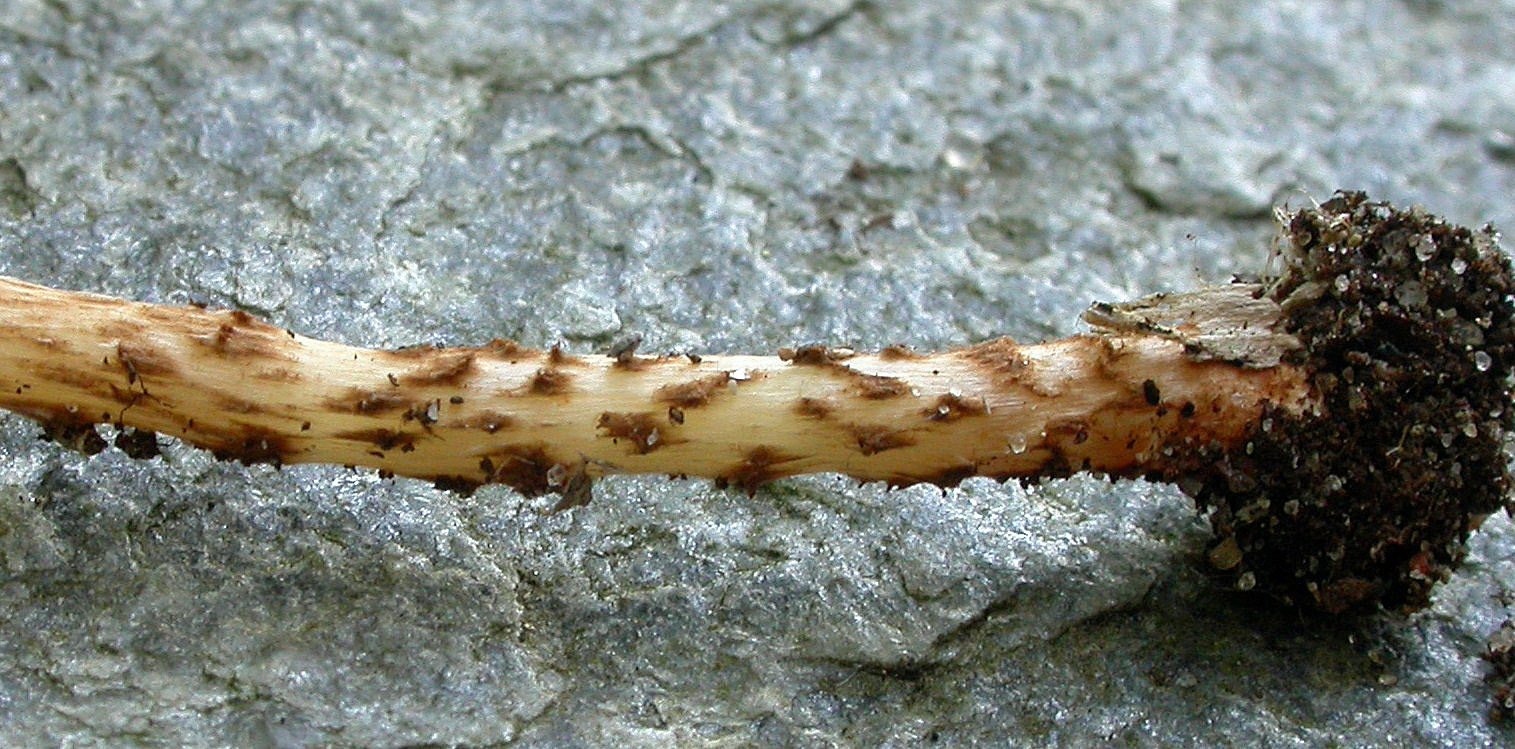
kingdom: Fungi
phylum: Basidiomycota
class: Agaricomycetes
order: Agaricales
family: Agaricaceae
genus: Lepiota
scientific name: Lepiota tomentella
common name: filtet parasolhat
